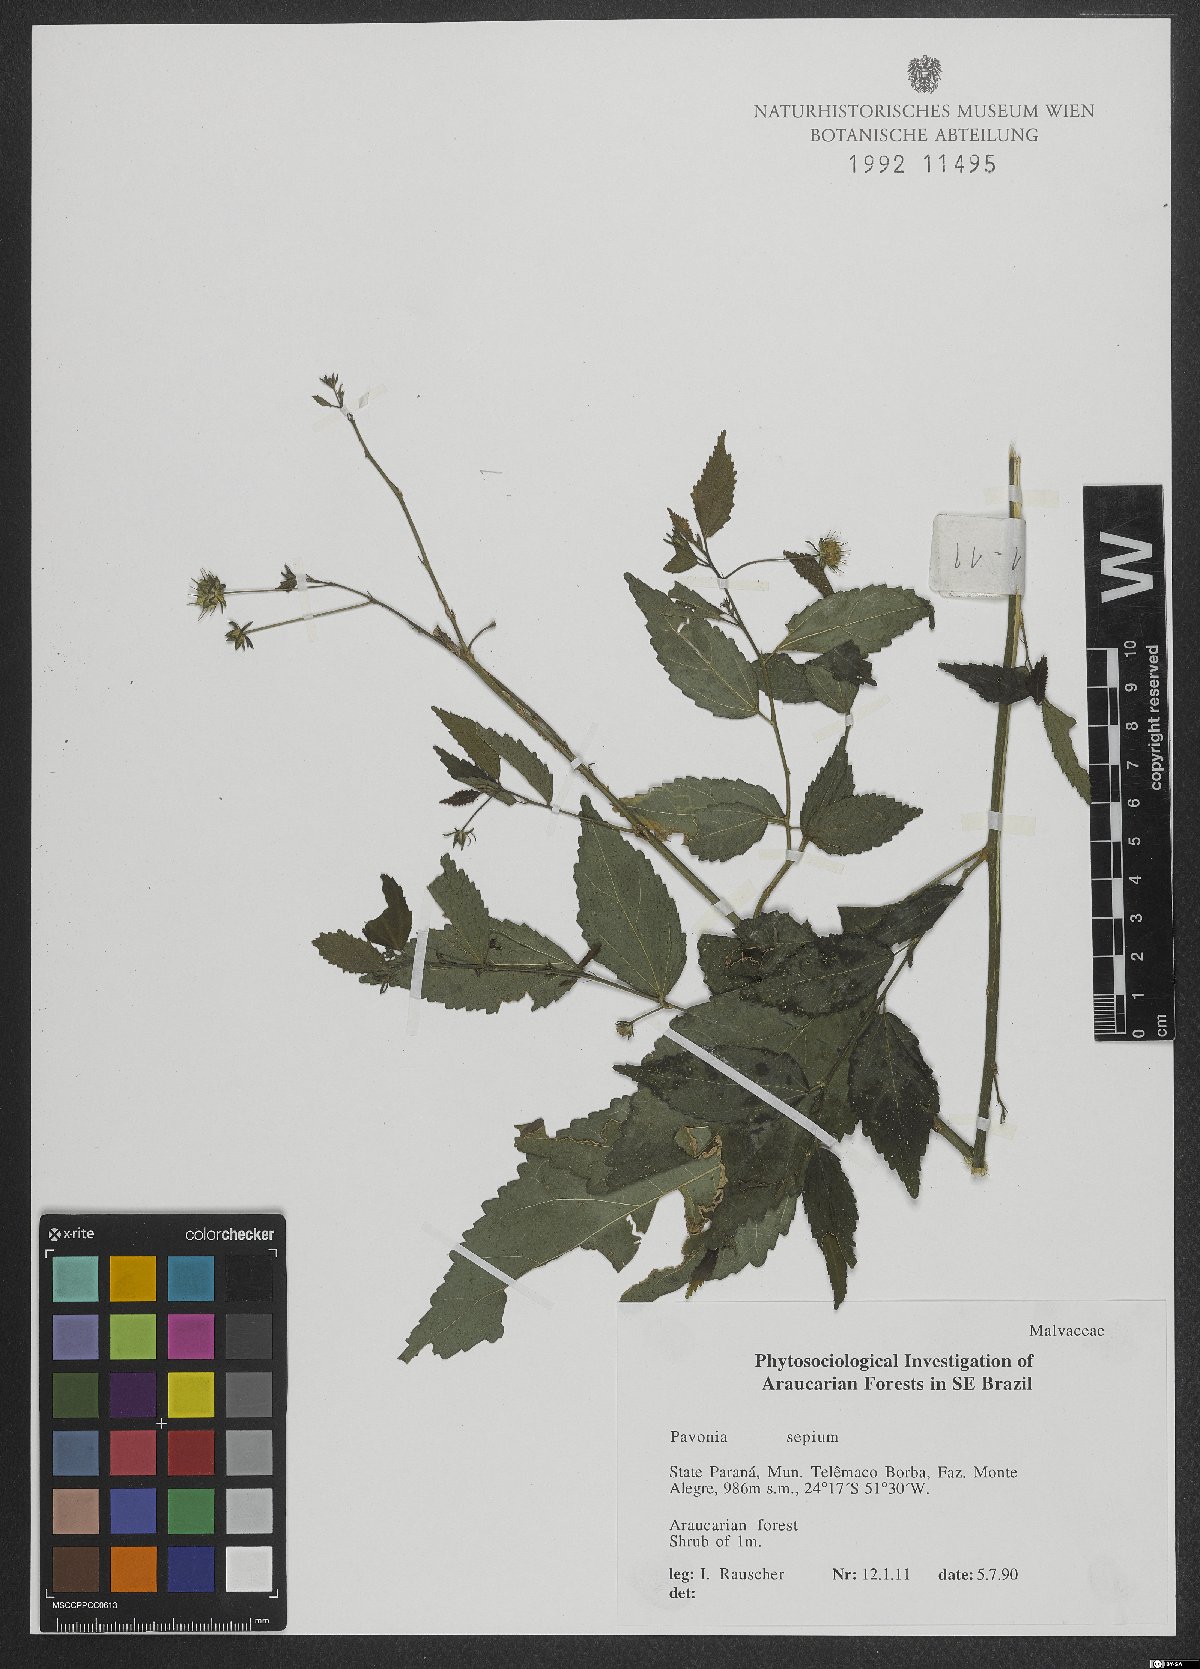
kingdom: Plantae
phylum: Tracheophyta
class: Magnoliopsida
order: Malvales
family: Malvaceae
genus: Pavonia
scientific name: Pavonia sepium
